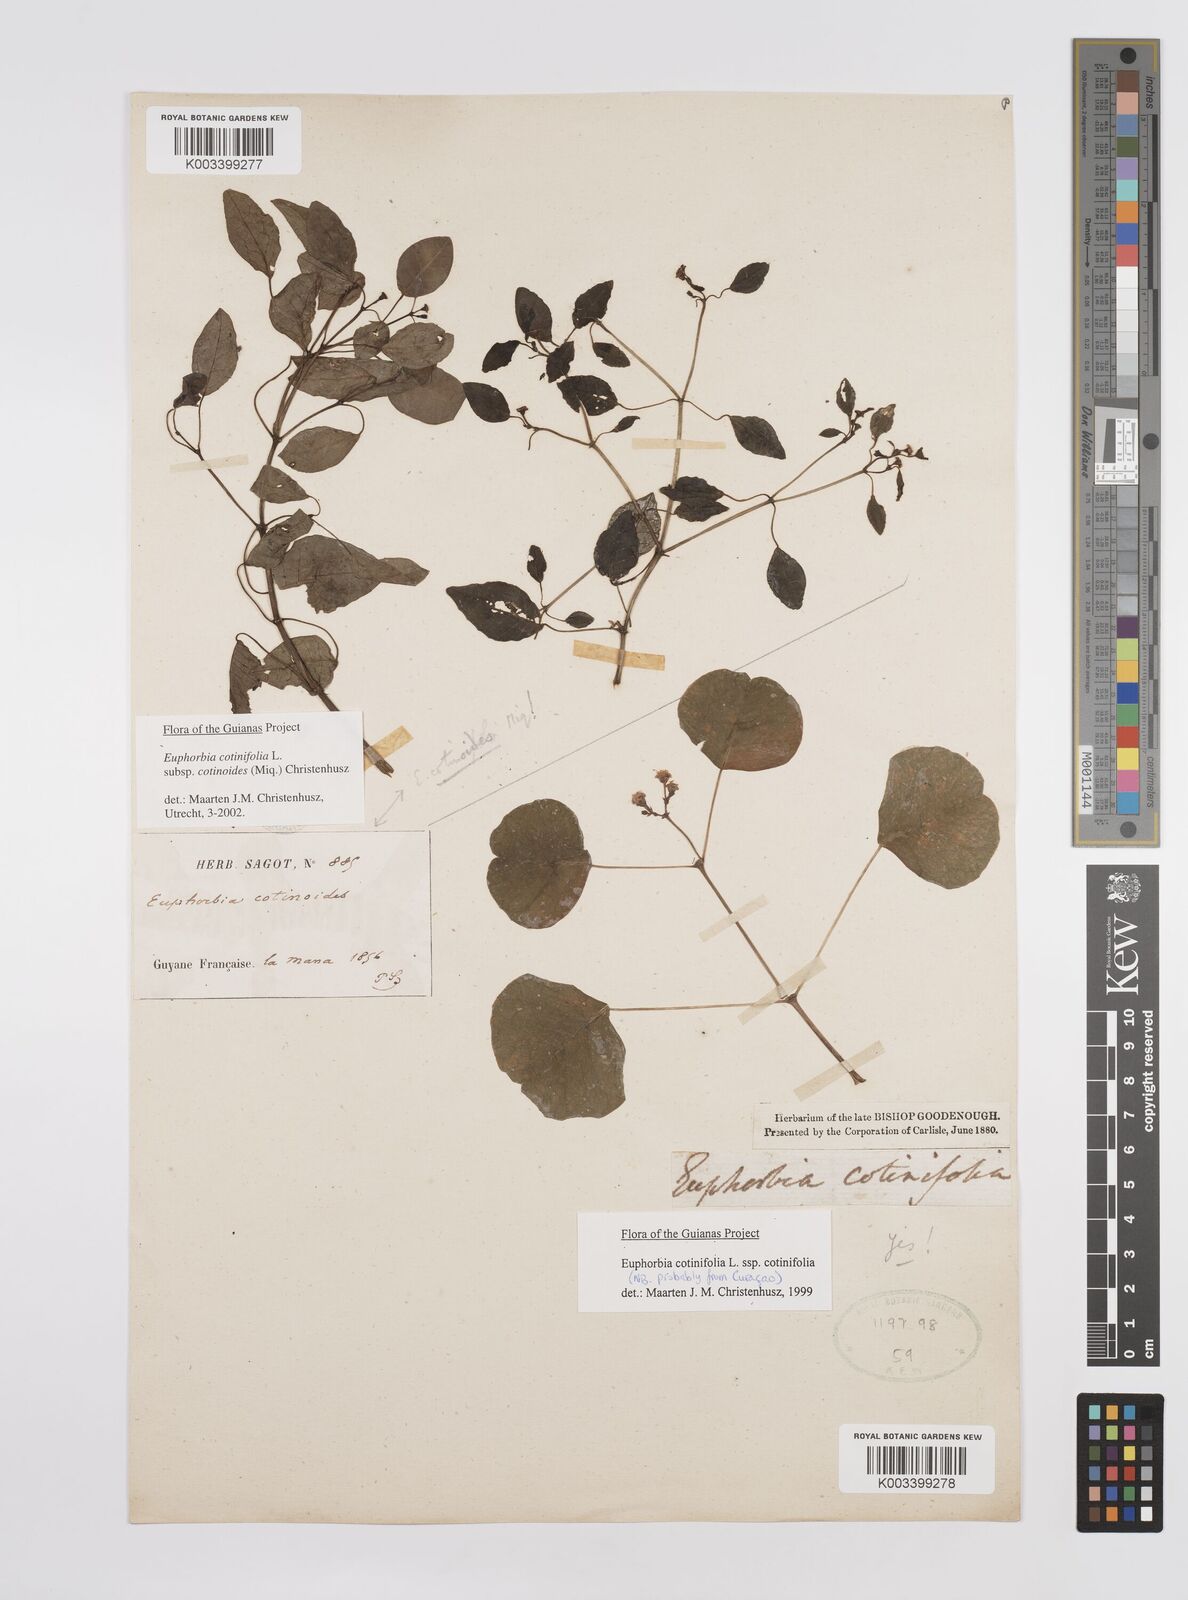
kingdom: Plantae
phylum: Tracheophyta
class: Magnoliopsida
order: Malpighiales
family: Euphorbiaceae
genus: Euphorbia
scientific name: Euphorbia cotinifolia
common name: Tropical smokebush
